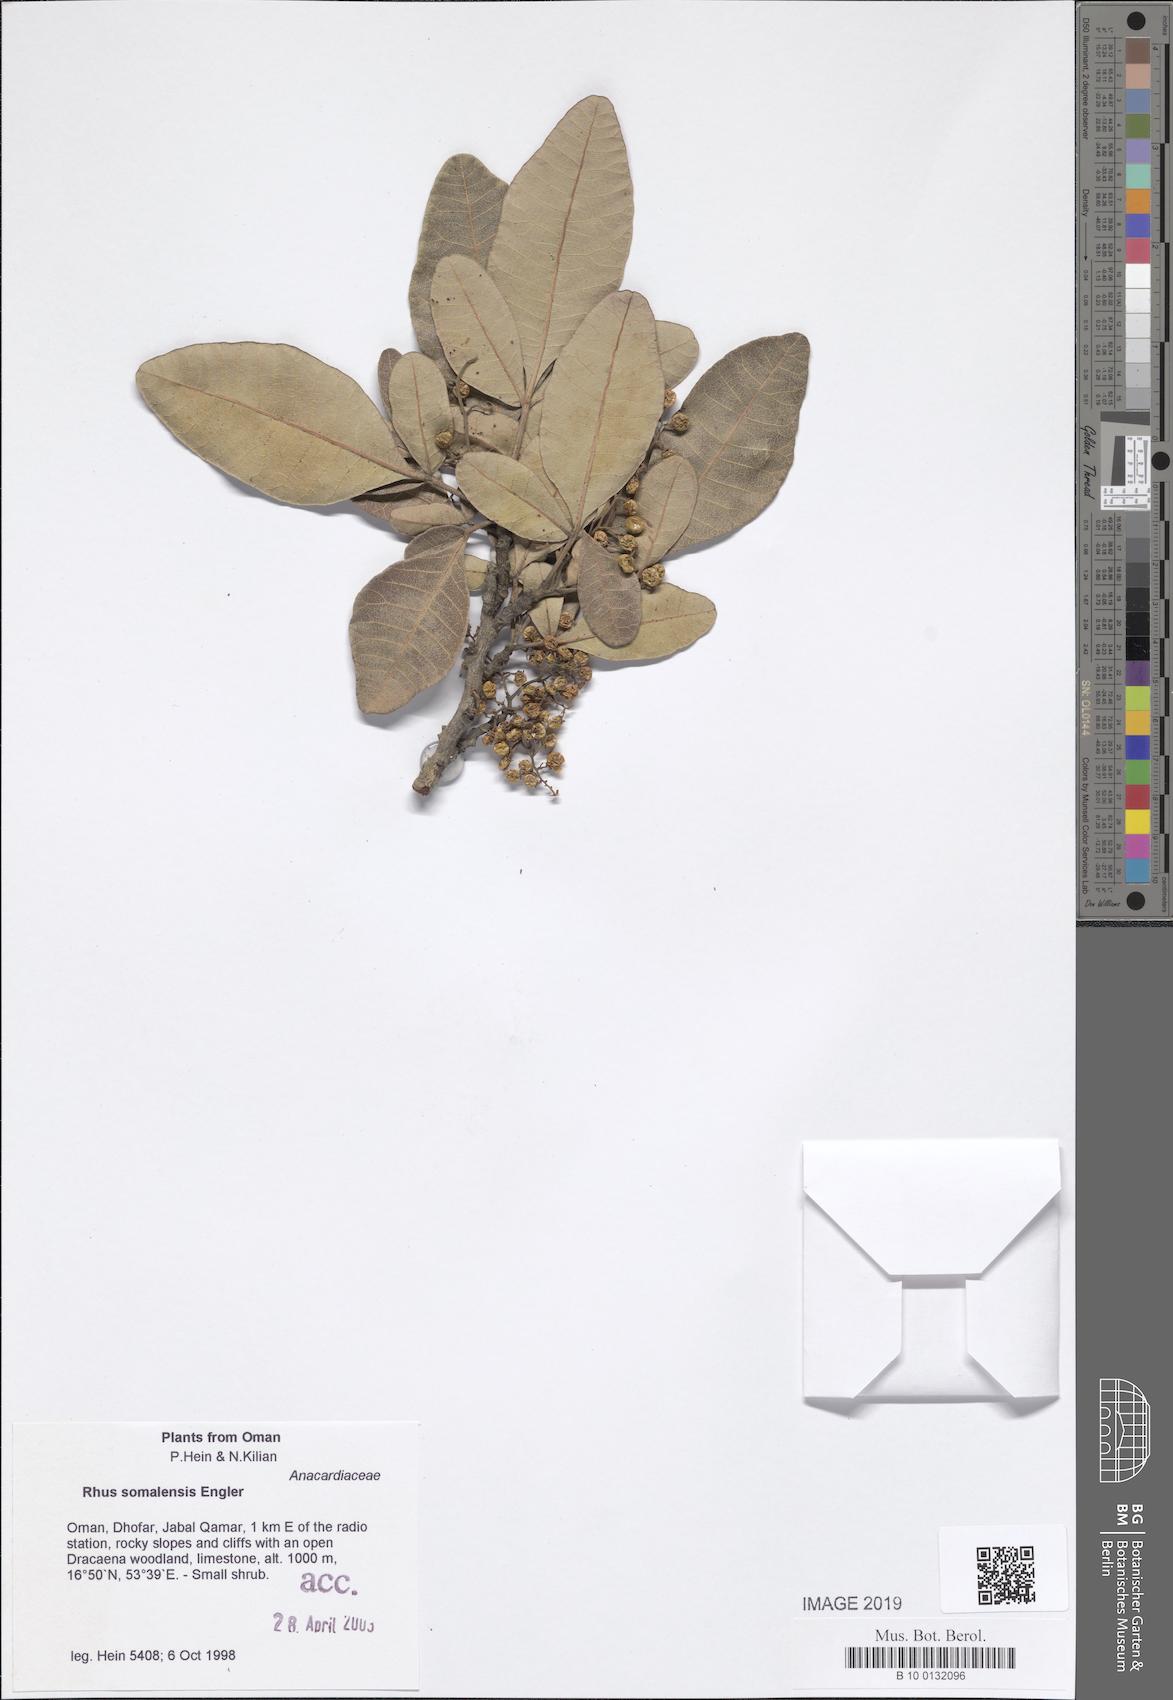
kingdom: Plantae
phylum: Tracheophyta
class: Magnoliopsida
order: Sapindales
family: Anacardiaceae
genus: Searsia
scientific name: Searsia somalensis
